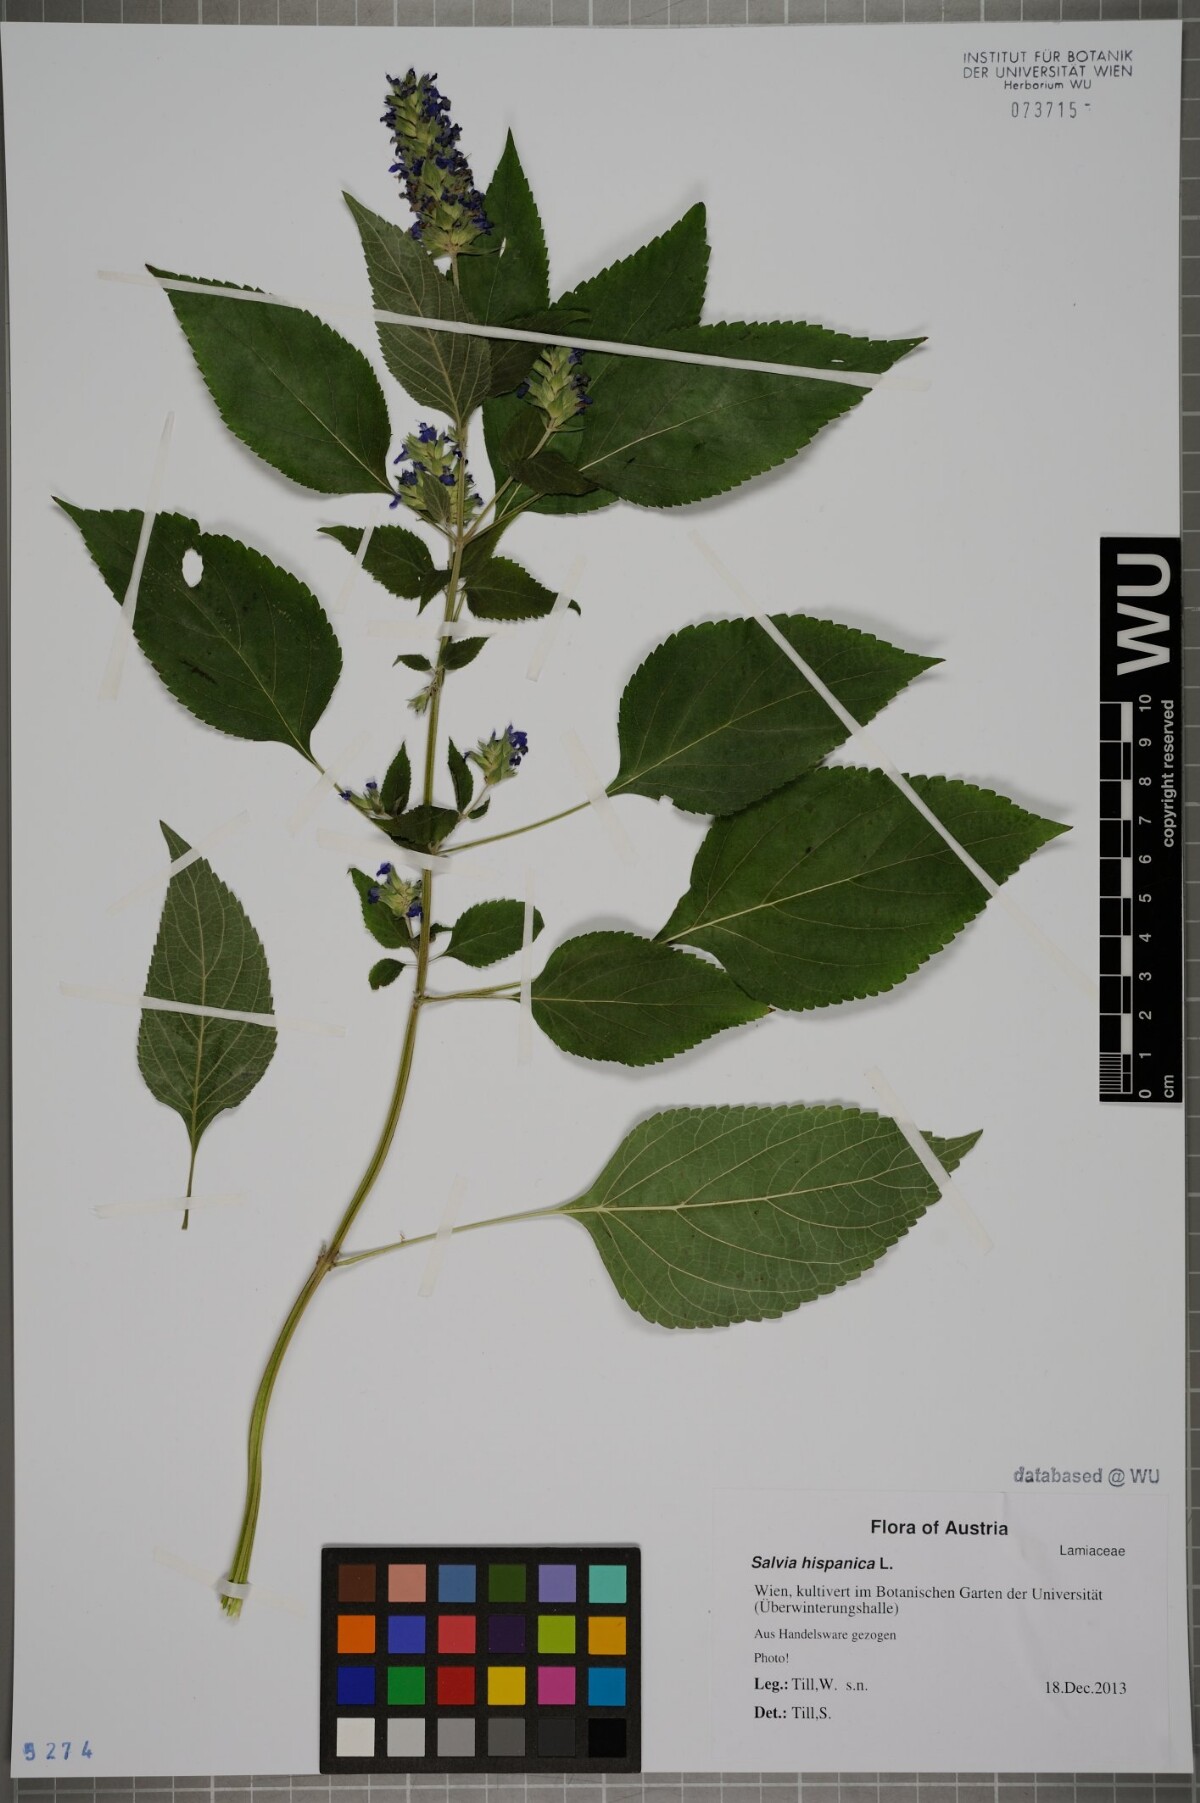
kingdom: Plantae
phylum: Tracheophyta
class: Magnoliopsida
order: Lamiales
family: Lamiaceae
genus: Salvia
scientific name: Salvia hispanica
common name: Chia
